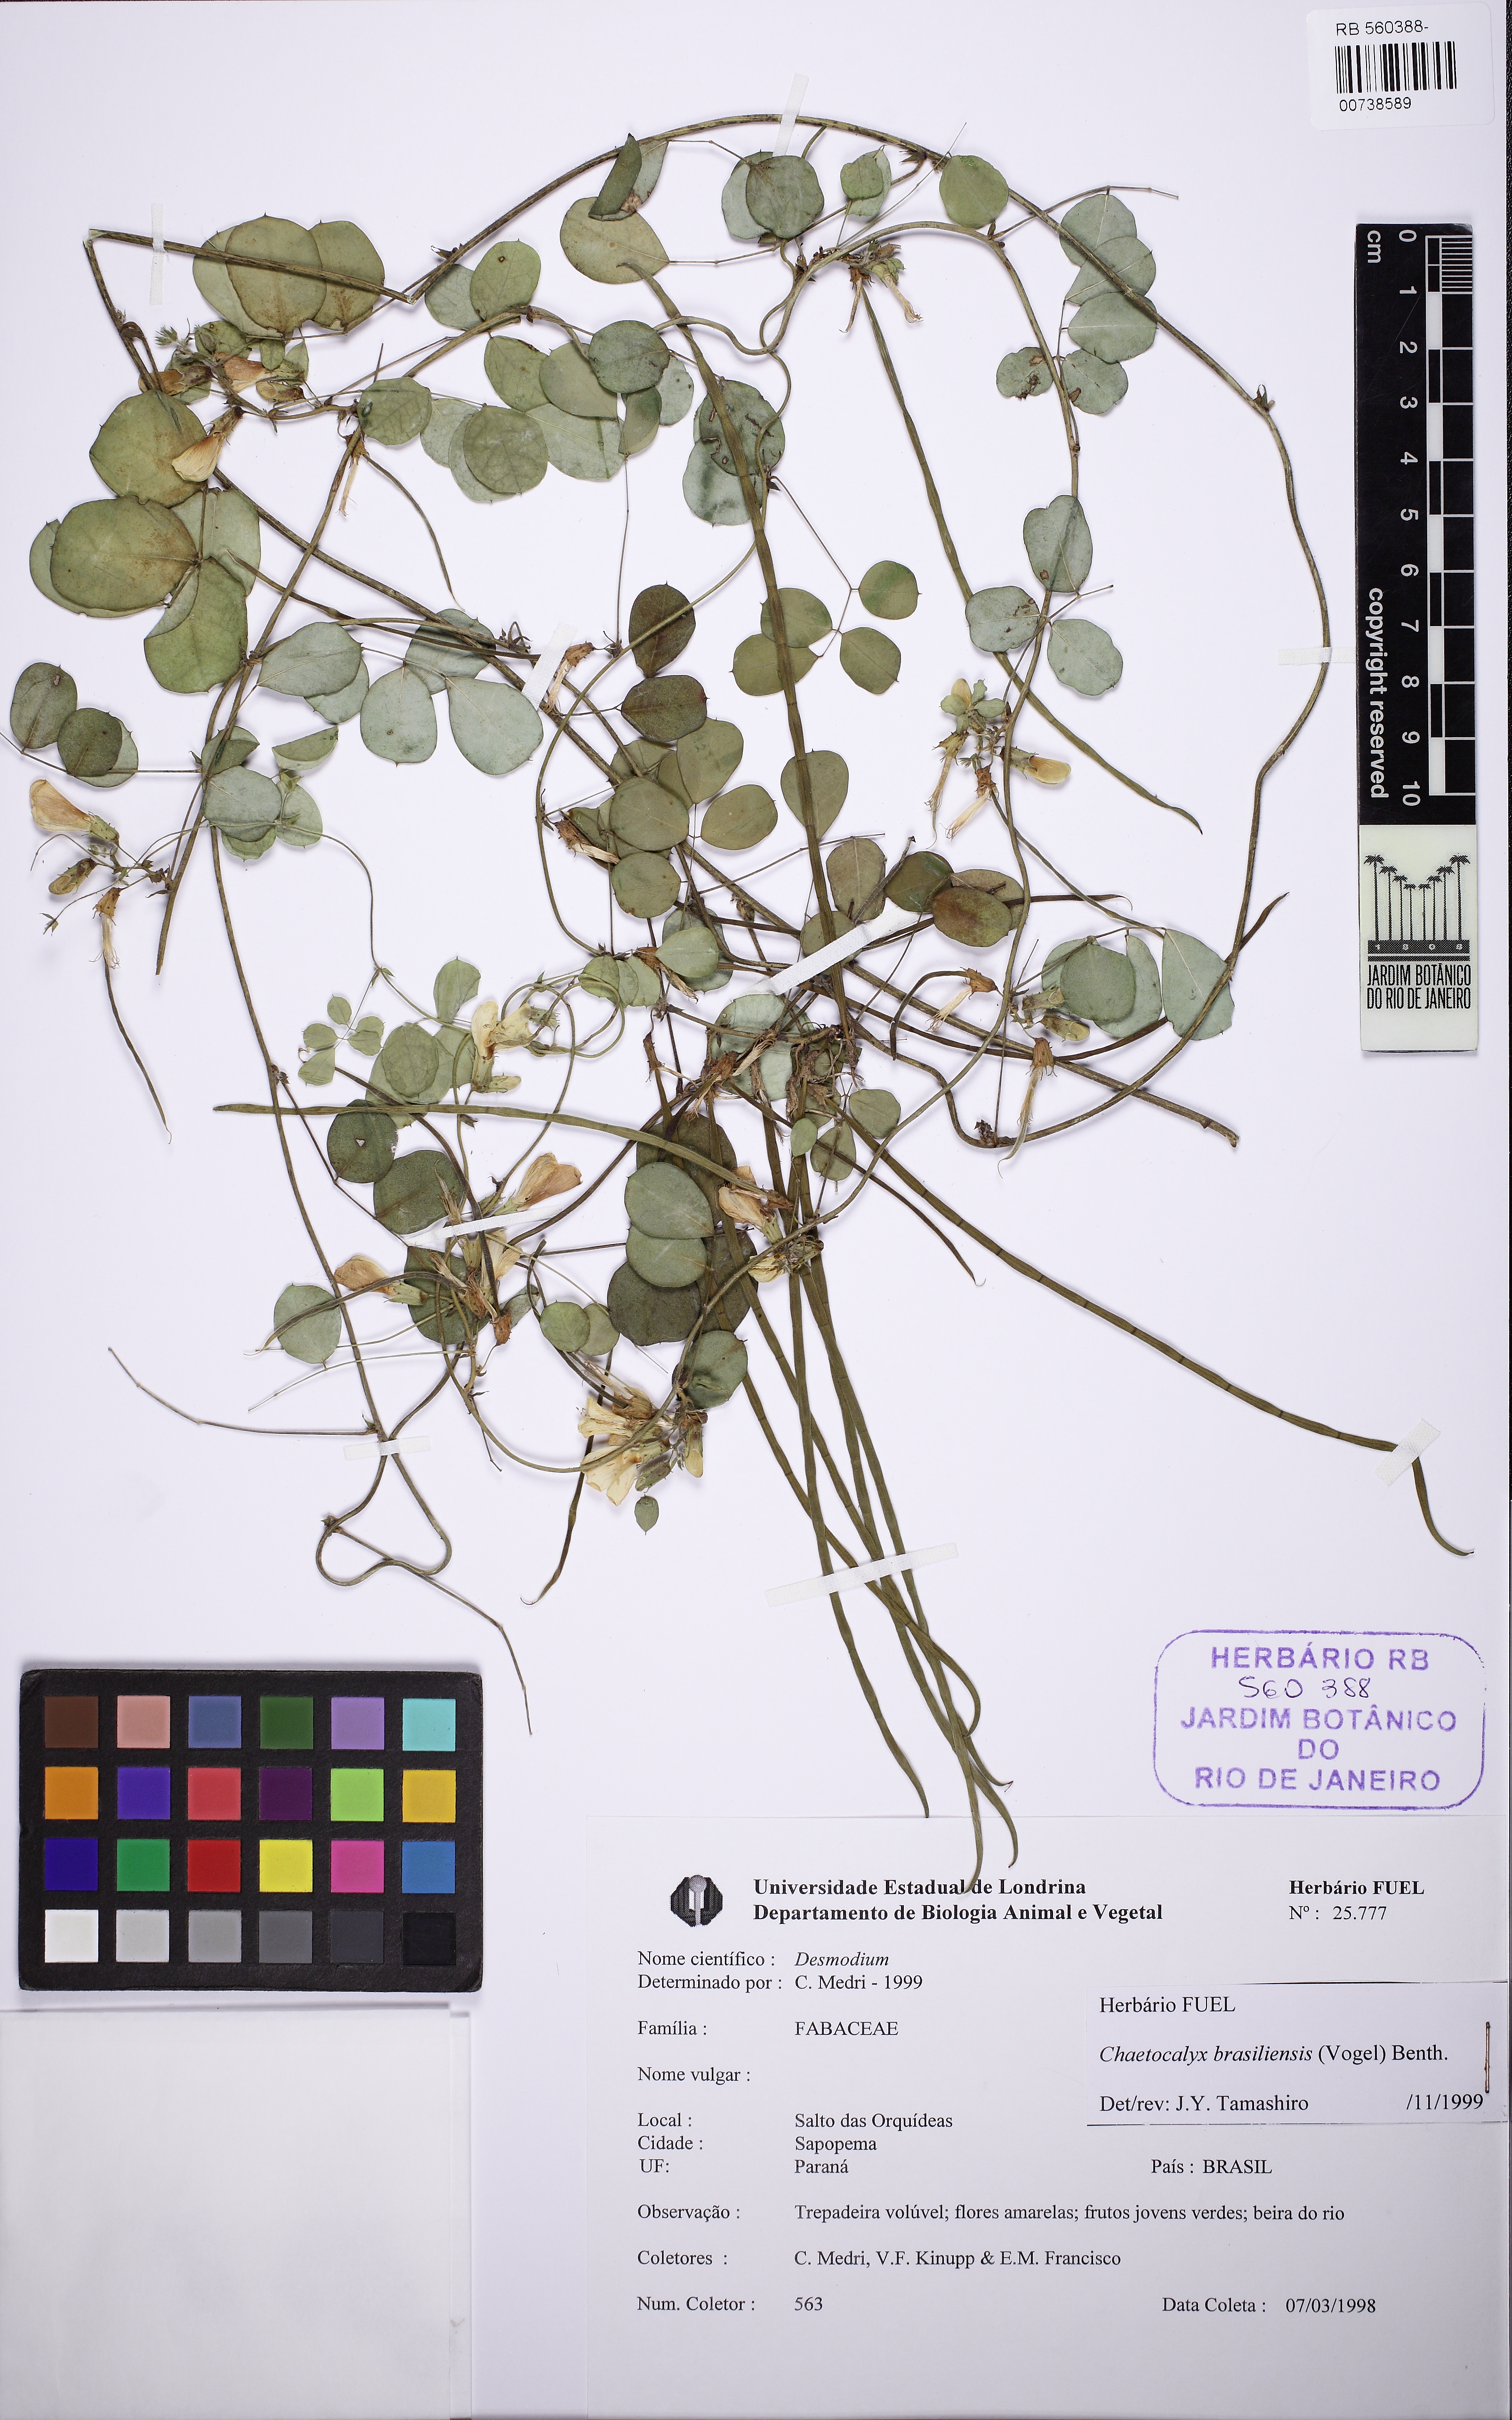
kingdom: Plantae
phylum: Tracheophyta
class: Magnoliopsida
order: Fabales
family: Fabaceae
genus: Nissolia
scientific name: Nissolia brasiliensis
